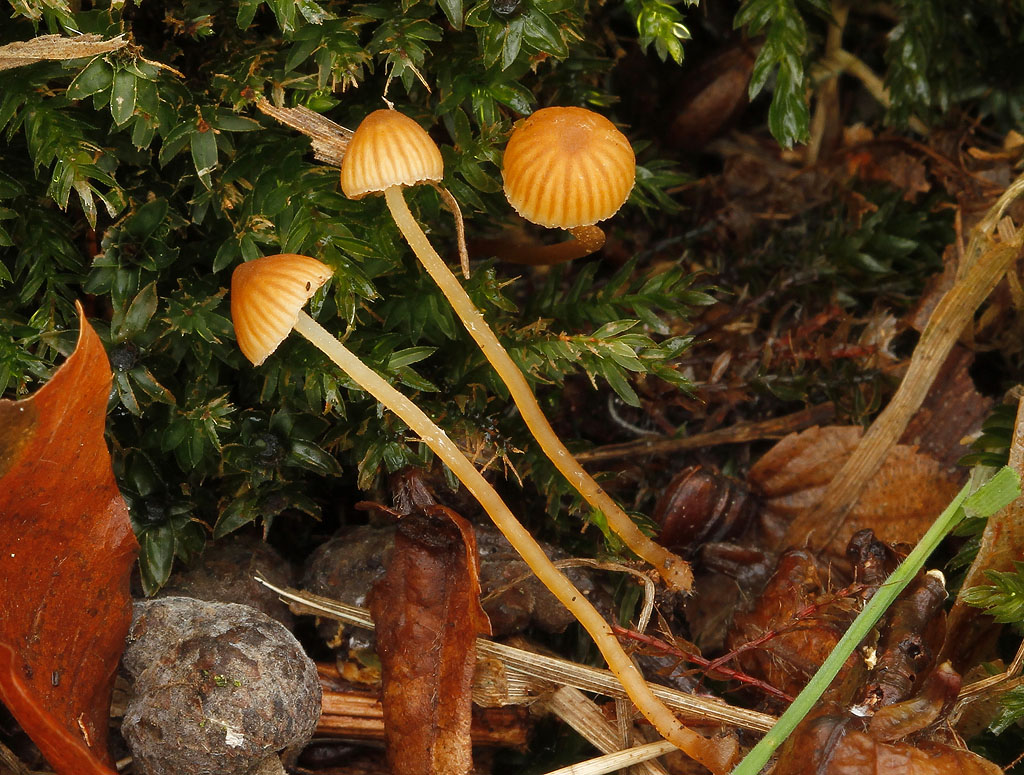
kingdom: Fungi
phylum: Basidiomycota
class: Agaricomycetes
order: Agaricales
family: Hymenogastraceae
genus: Galerina
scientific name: Galerina hypnorum
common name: mos-hjelmhat
